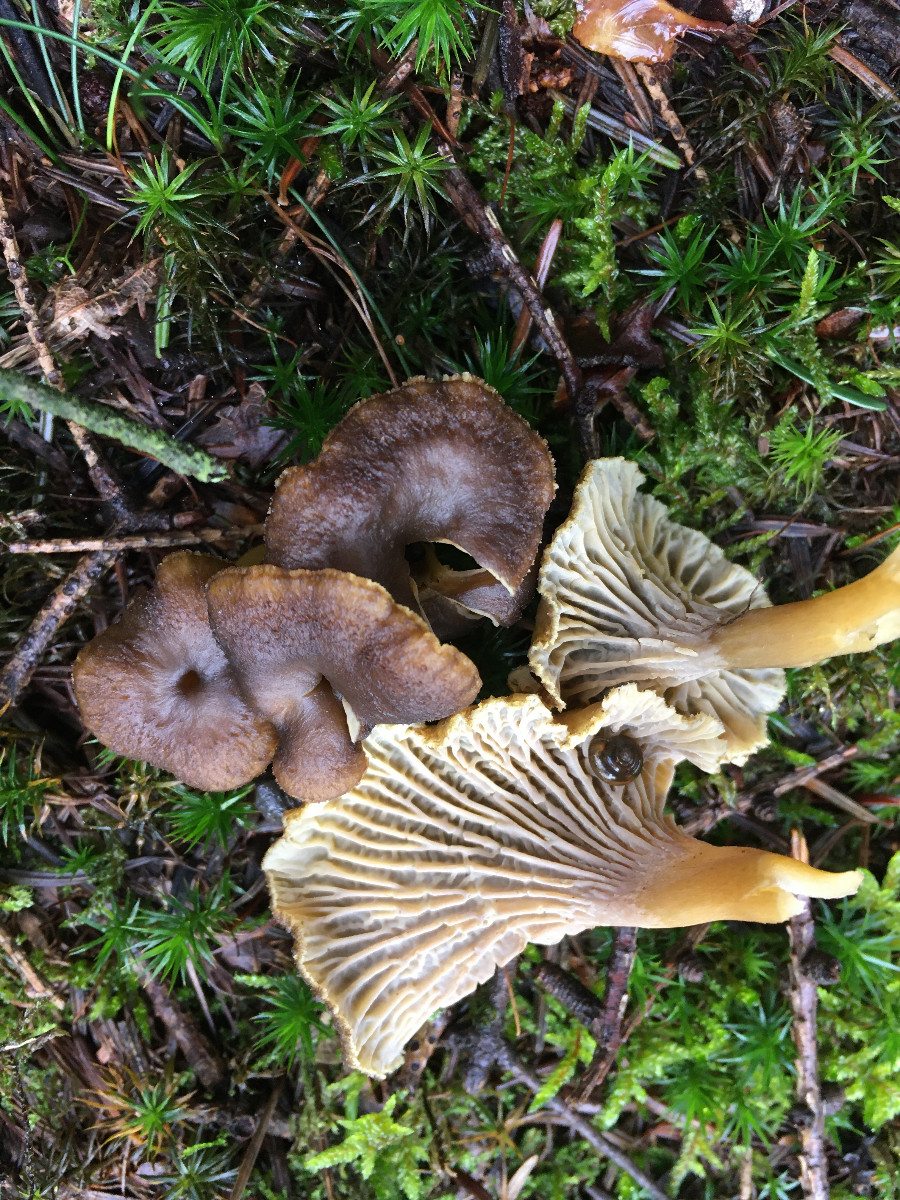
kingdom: Fungi
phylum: Basidiomycota
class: Agaricomycetes
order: Cantharellales
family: Hydnaceae
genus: Craterellus
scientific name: Craterellus tubaeformis
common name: tragt-kantarel
